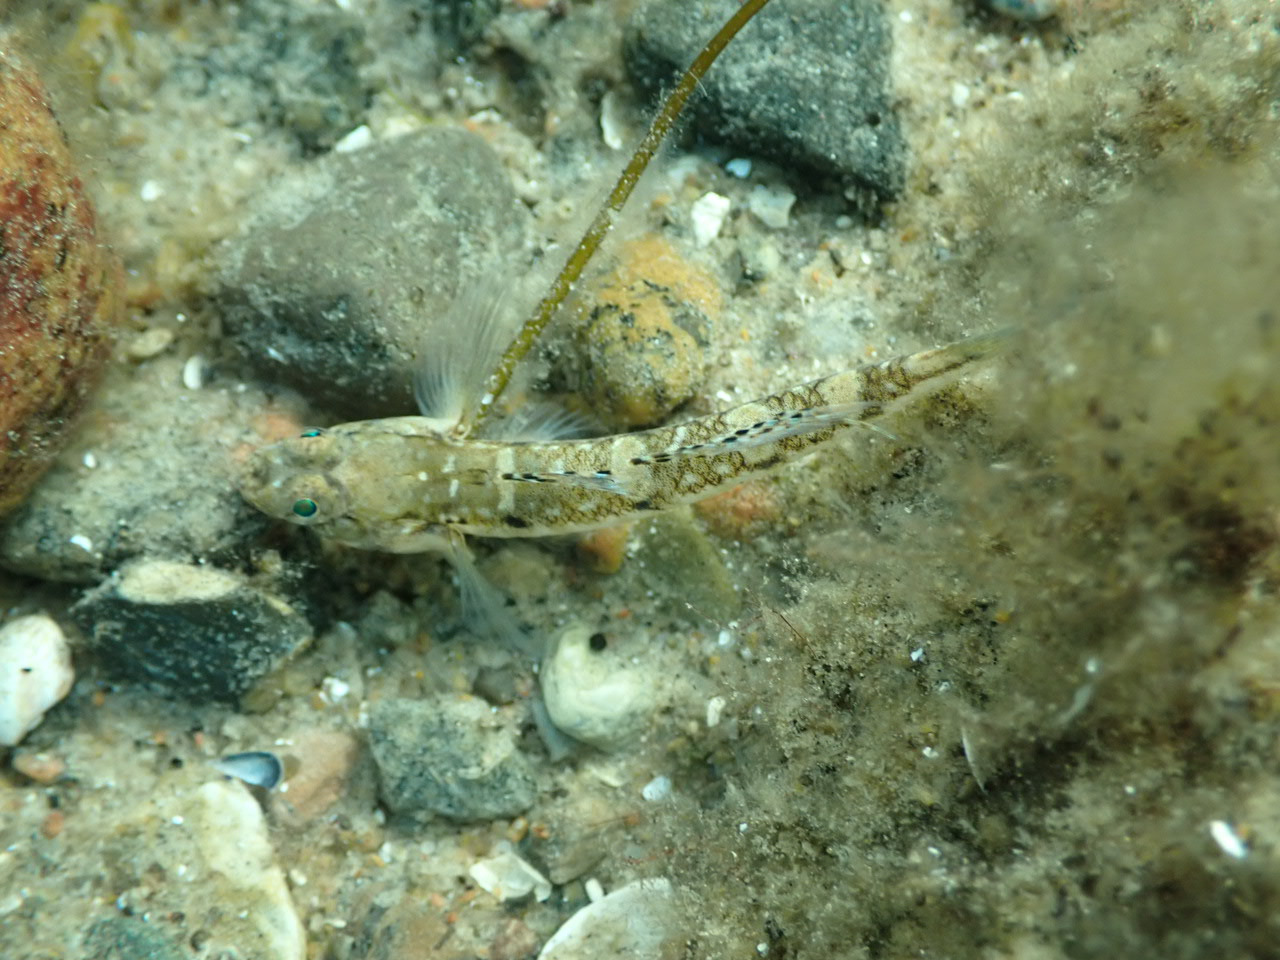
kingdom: Animalia
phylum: Chordata
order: Perciformes
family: Gobiidae
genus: Pomatoschistus
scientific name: Pomatoschistus pictus
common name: Spættet kutling
